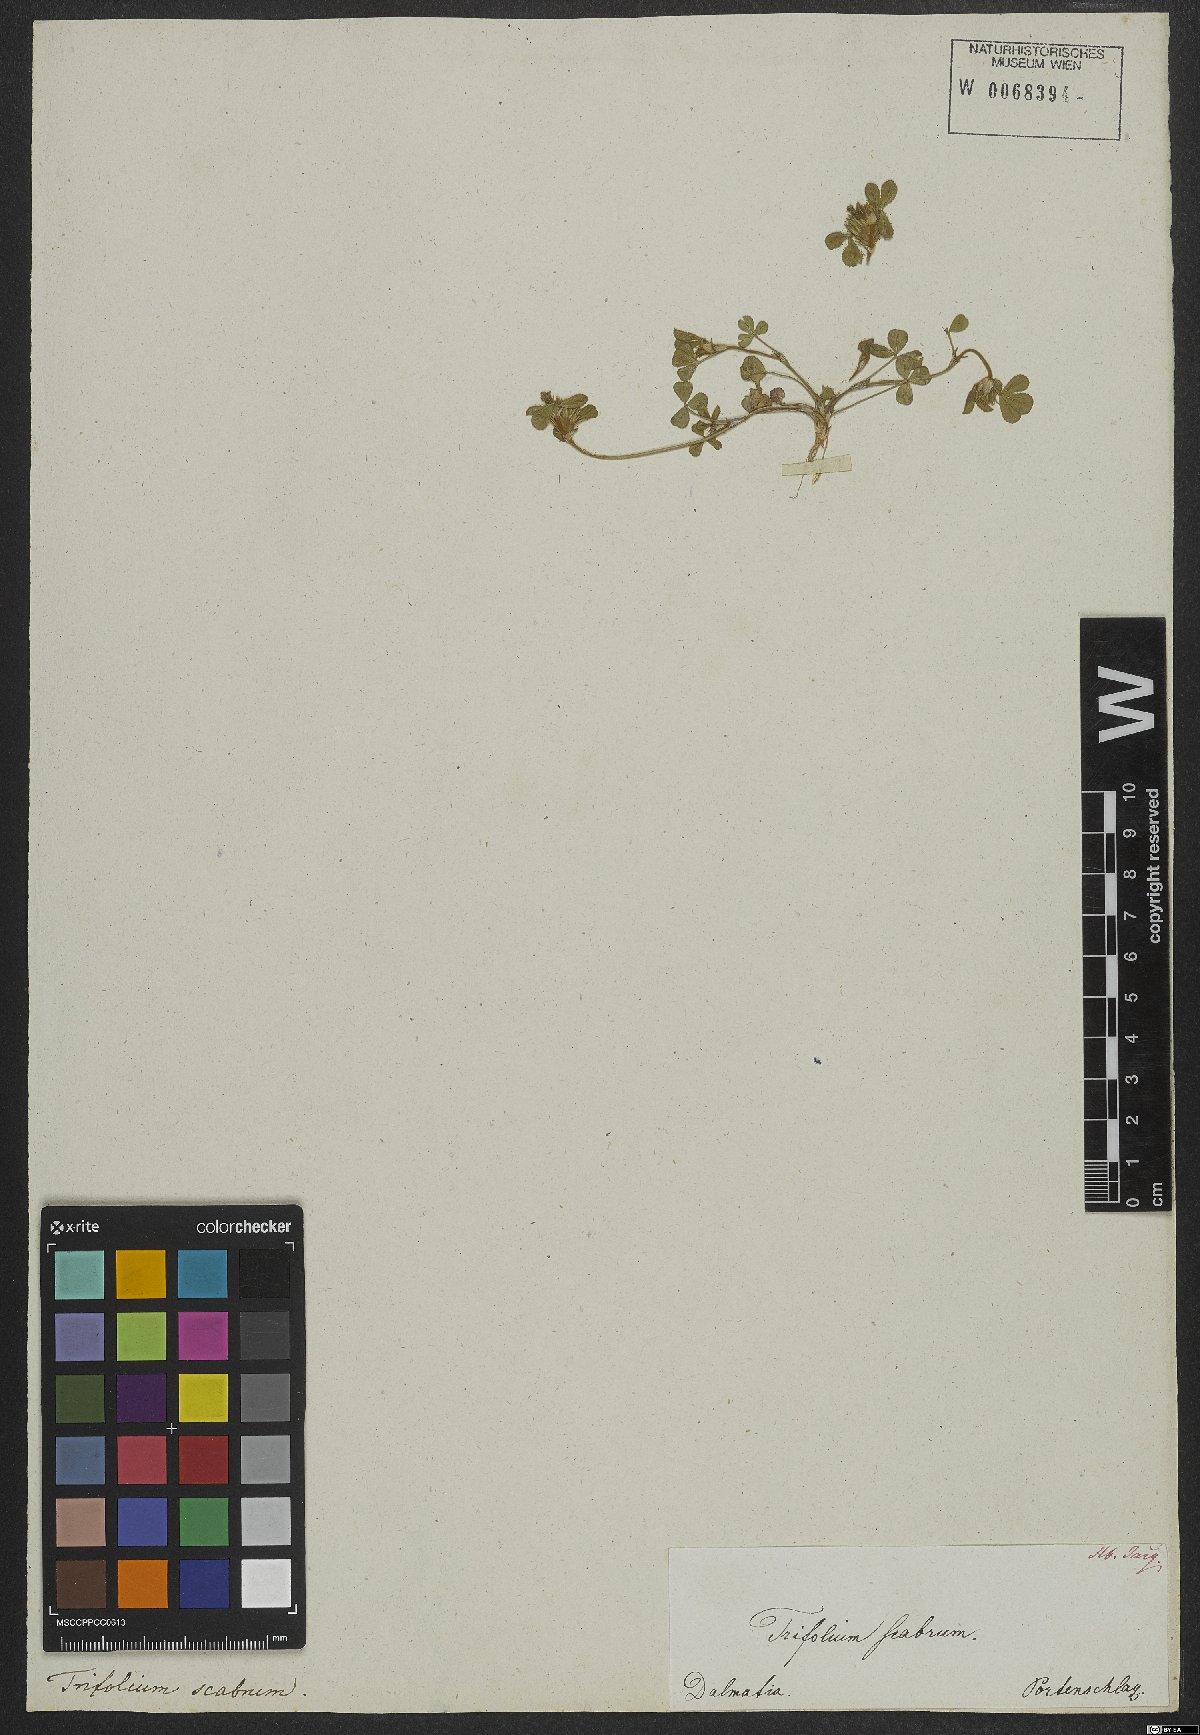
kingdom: Plantae
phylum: Tracheophyta
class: Magnoliopsida
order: Fabales
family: Fabaceae
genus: Trifolium
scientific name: Trifolium scabrum
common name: Rough clover
